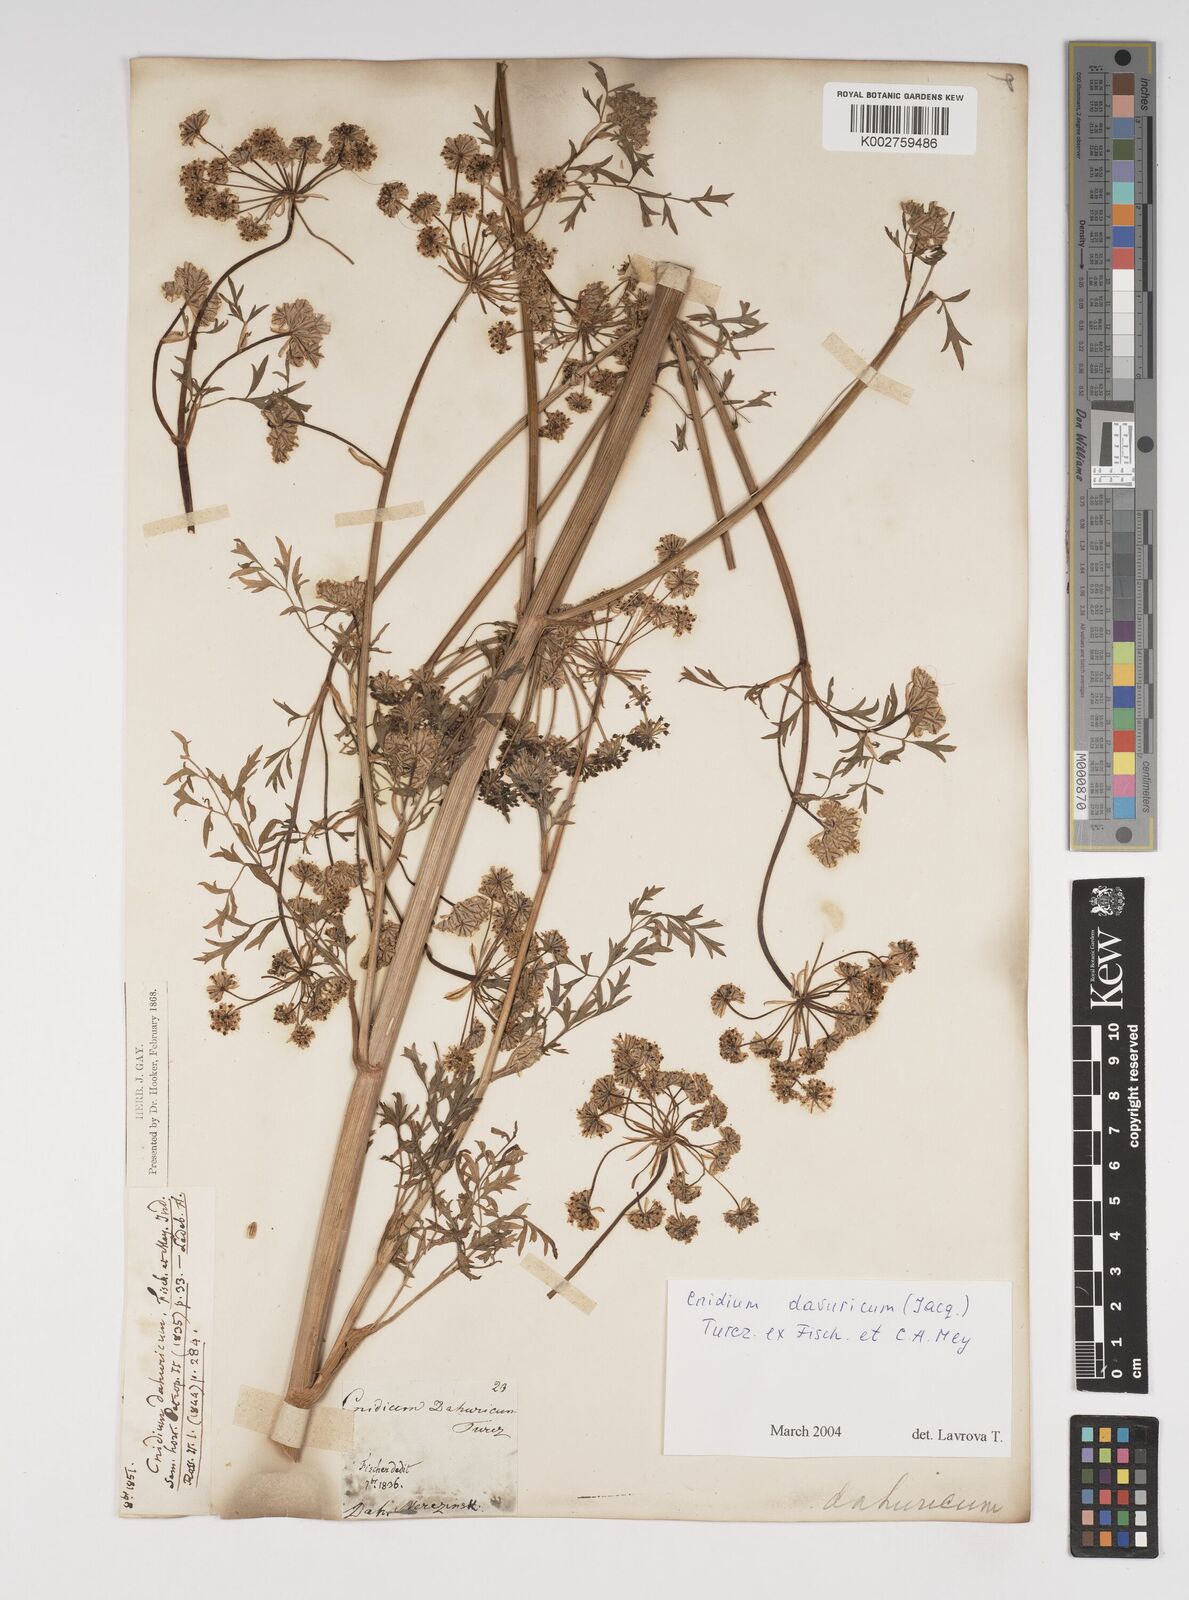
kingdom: Plantae
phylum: Tracheophyta
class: Magnoliopsida
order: Apiales
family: Apiaceae
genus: Cnidium
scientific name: Cnidium dauricum
